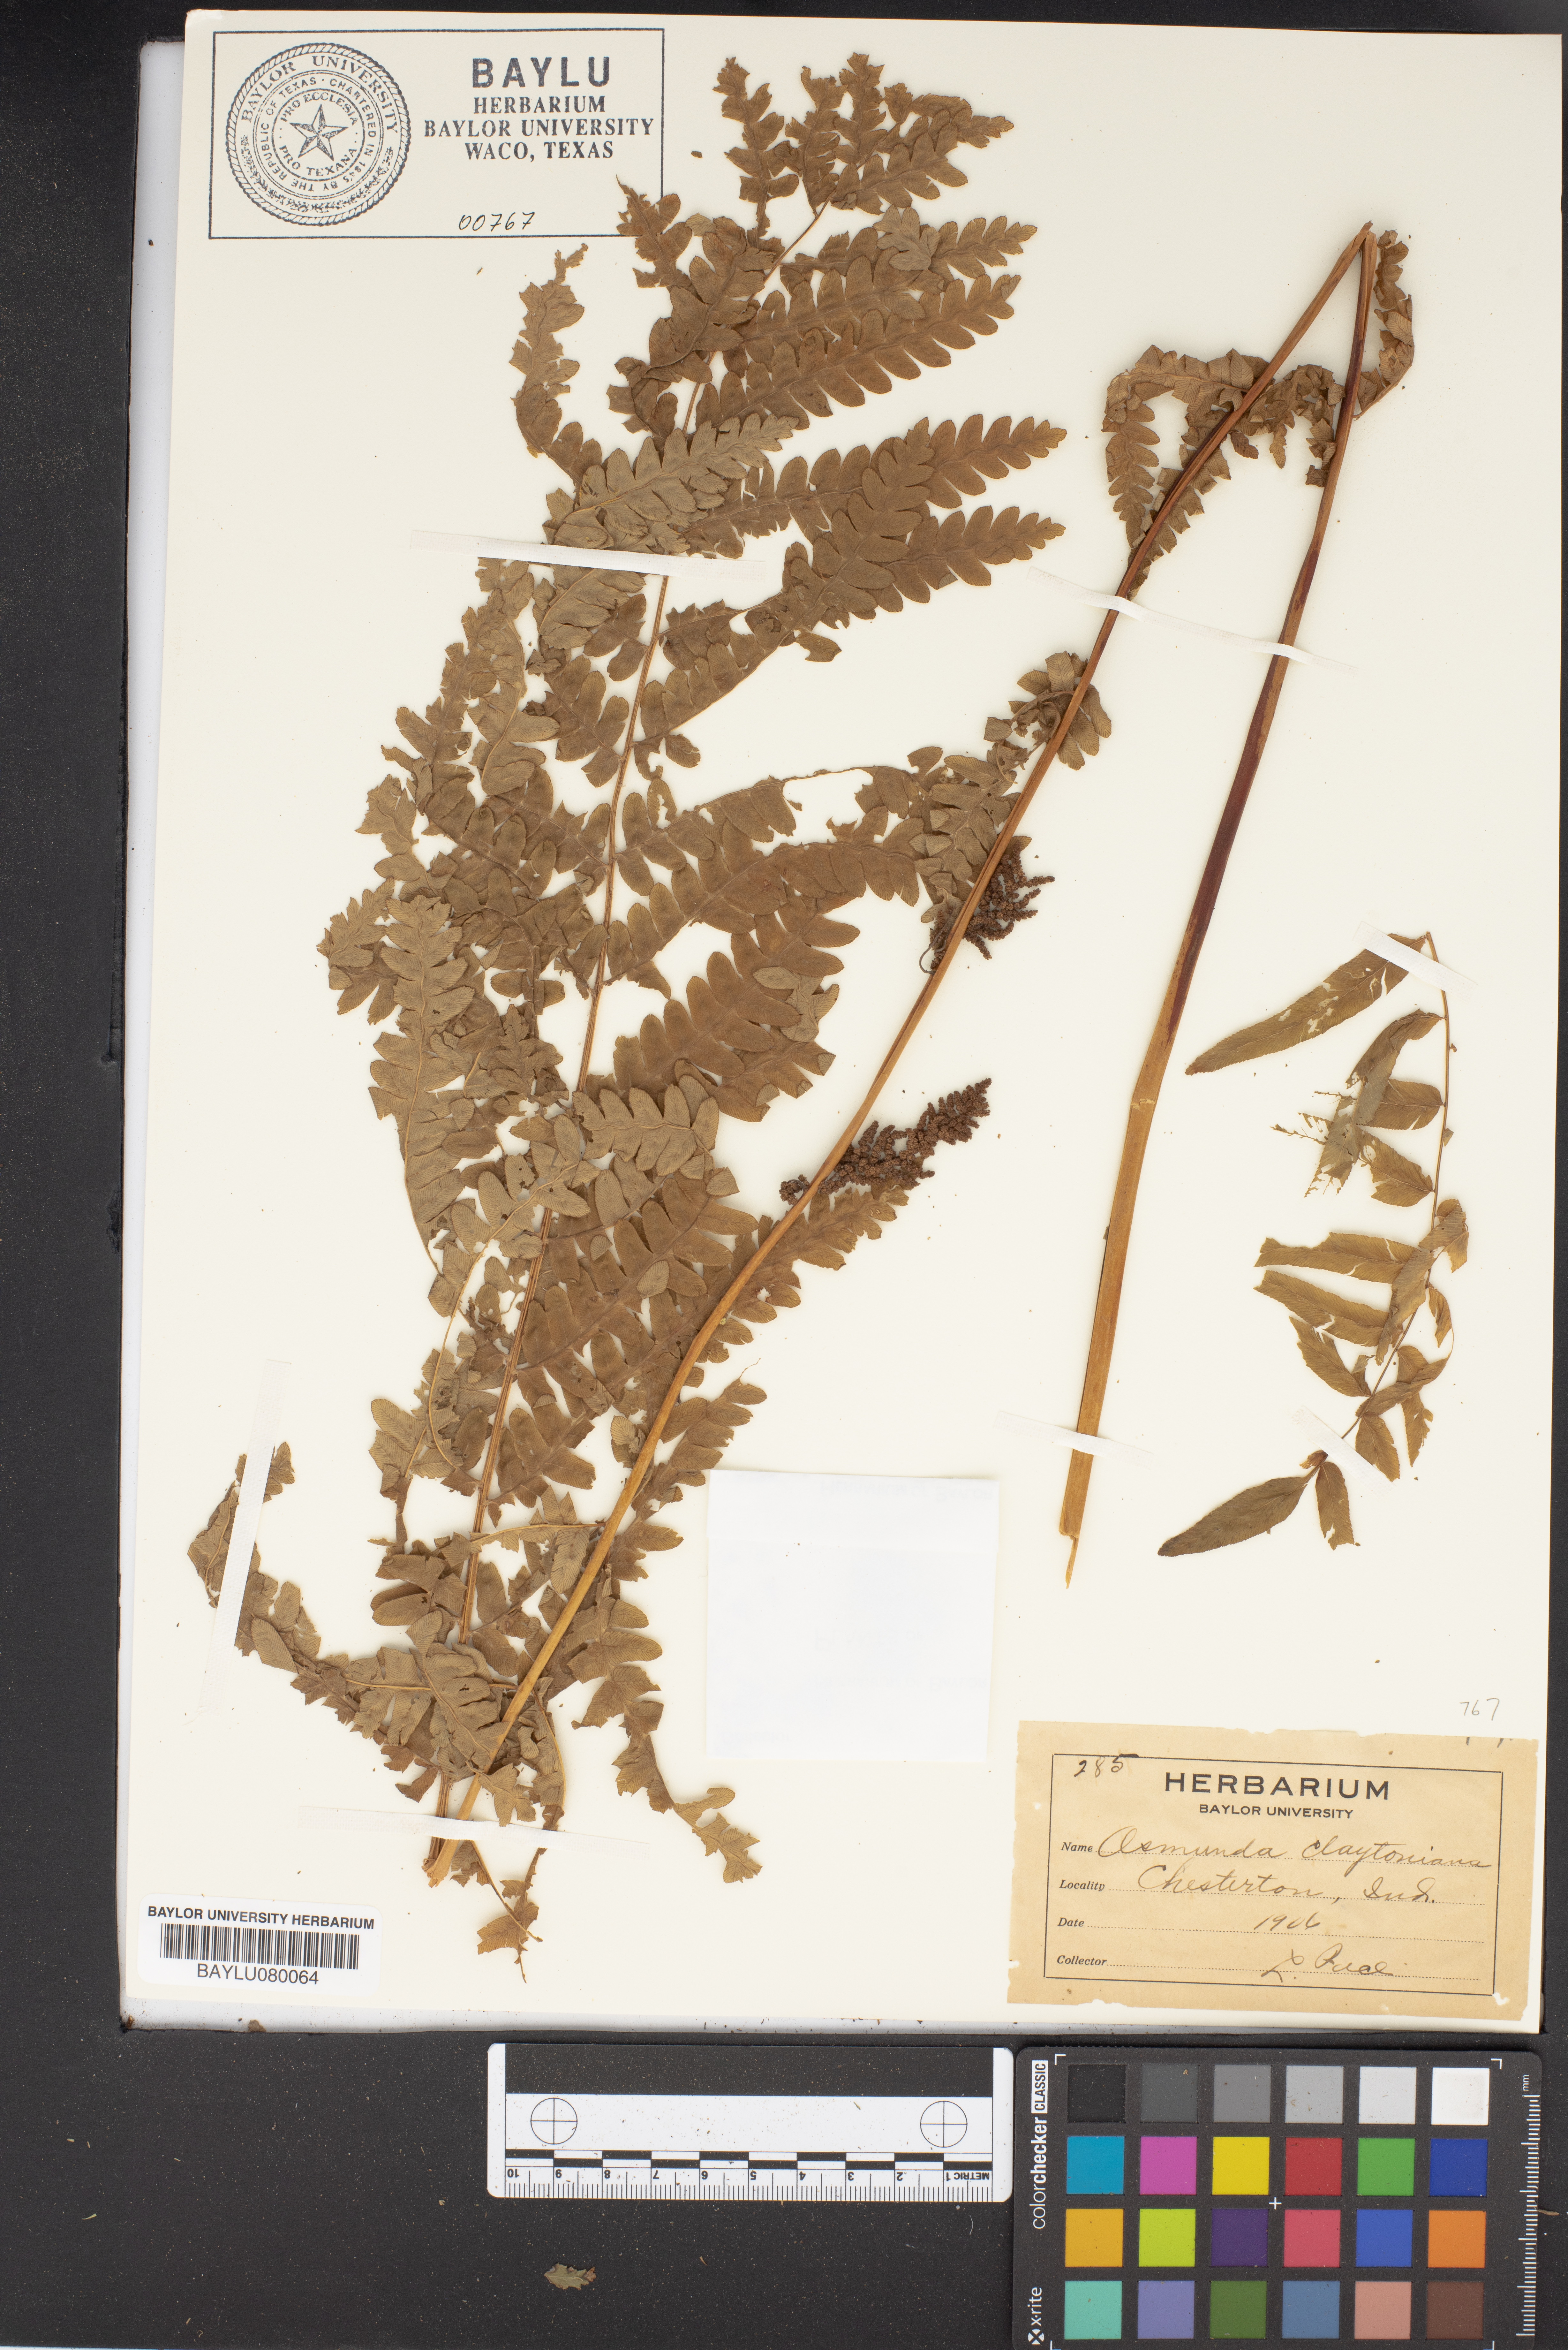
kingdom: Plantae
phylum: Tracheophyta
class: Polypodiopsida
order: Osmundales
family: Osmundaceae
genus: Claytosmunda
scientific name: Claytosmunda claytoniana
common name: Clayton's fern
